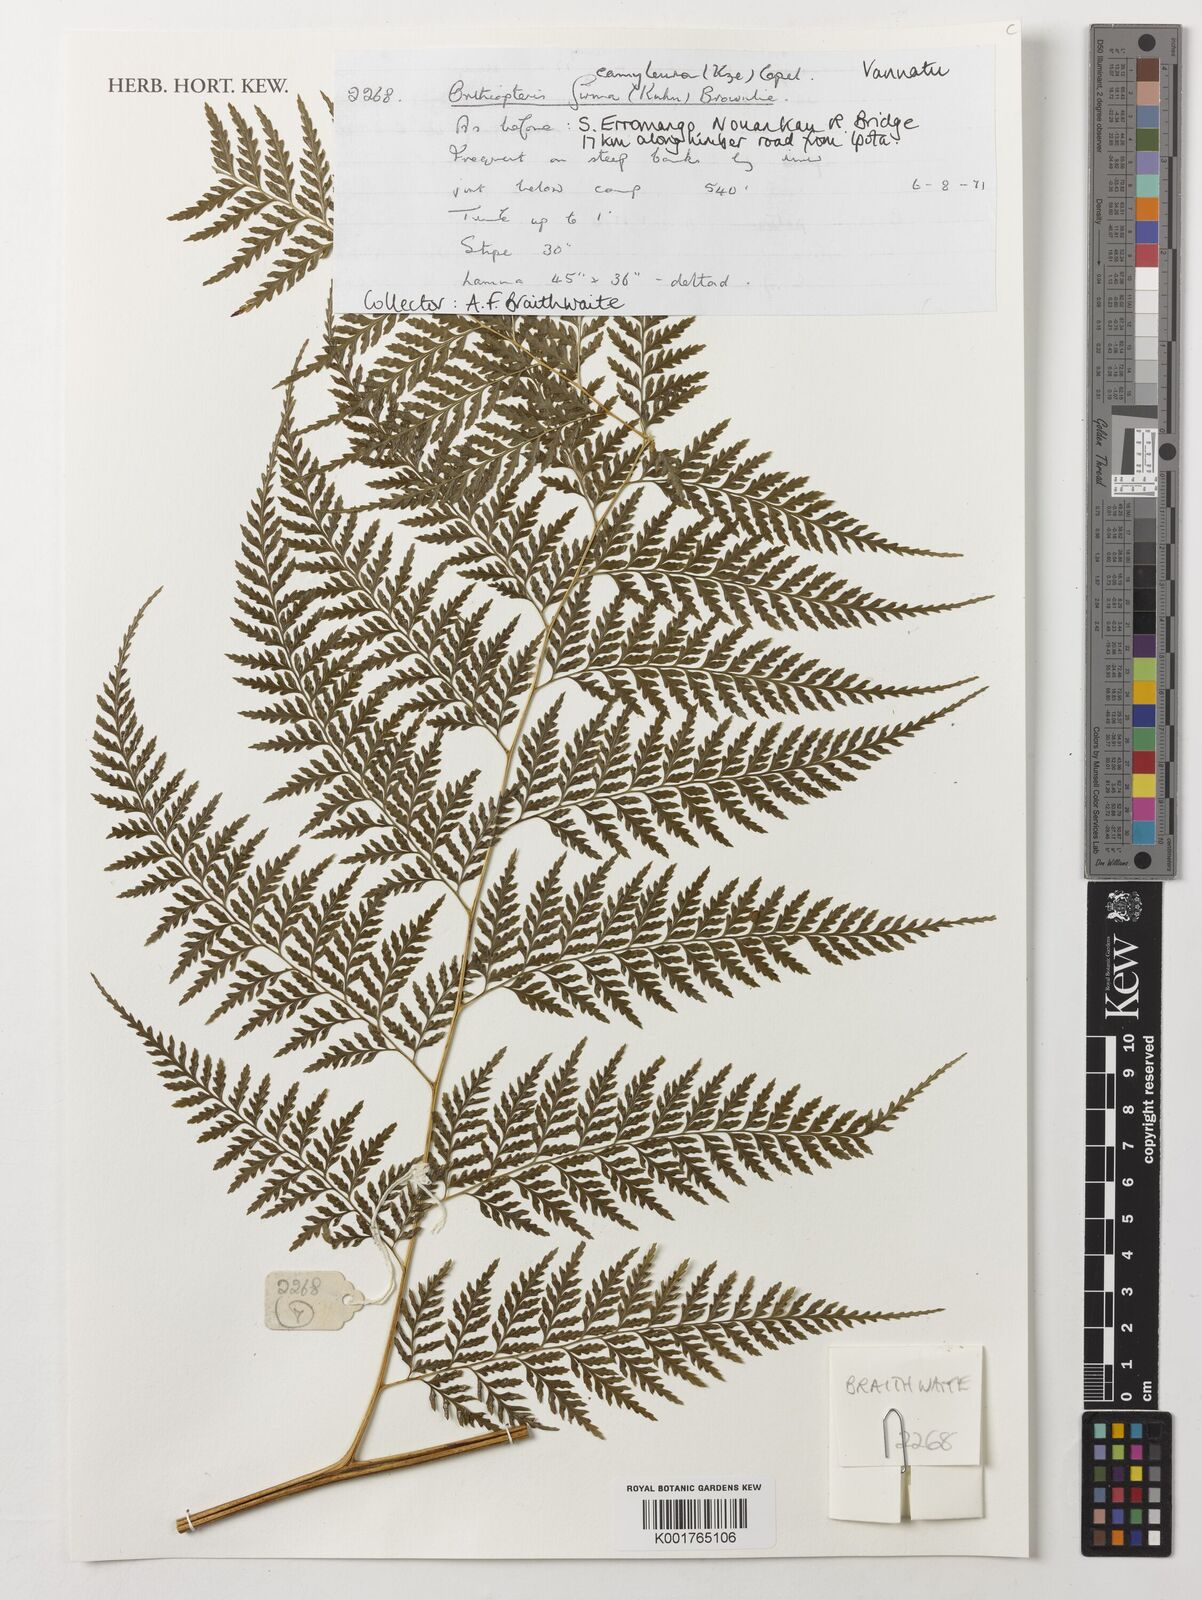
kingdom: Plantae
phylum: Tracheophyta
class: Polypodiopsida
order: Polypodiales
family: Saccolomataceae
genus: Orthiopteris
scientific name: Orthiopteris campylura
